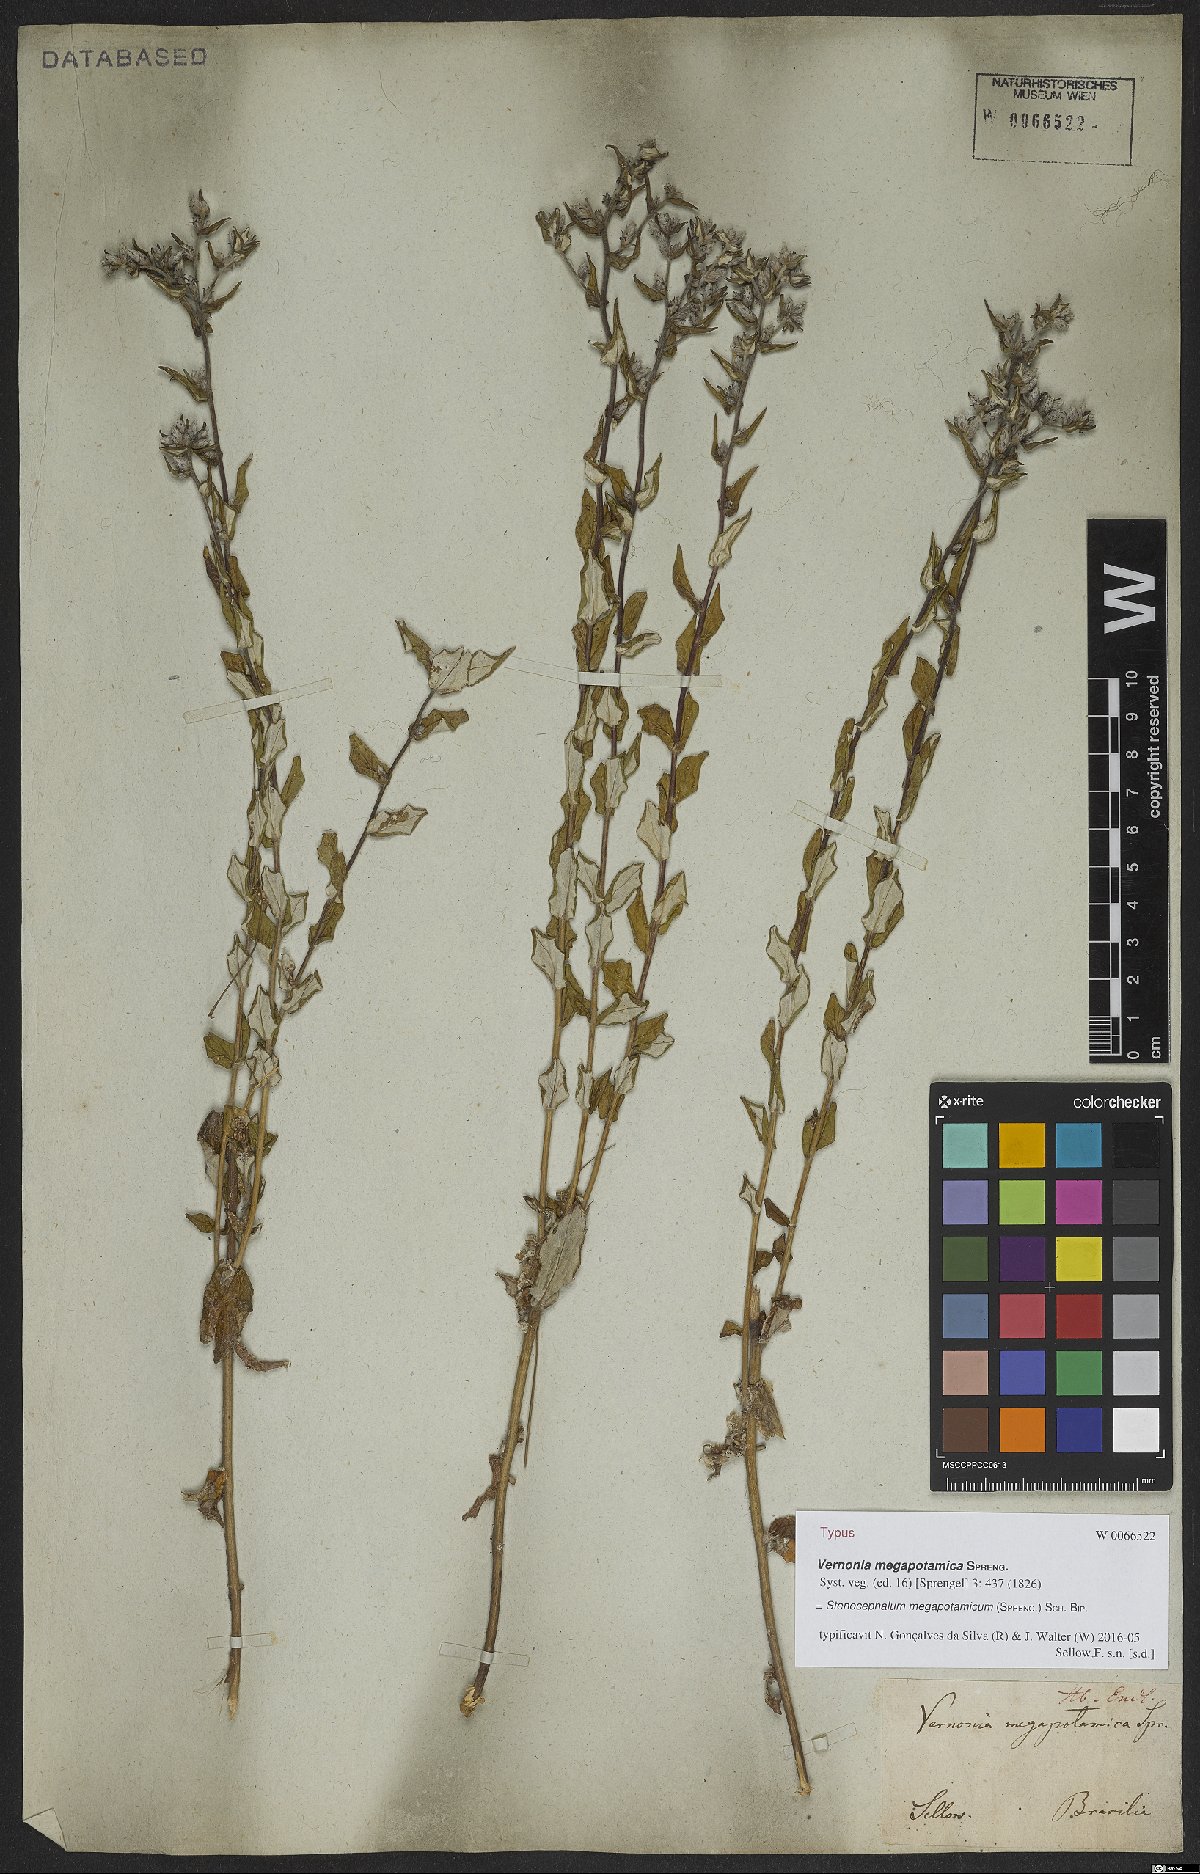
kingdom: Plantae
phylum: Tracheophyta
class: Magnoliopsida
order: Asterales
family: Asteraceae
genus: Stenocephalum
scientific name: Stenocephalum megapotamicum
